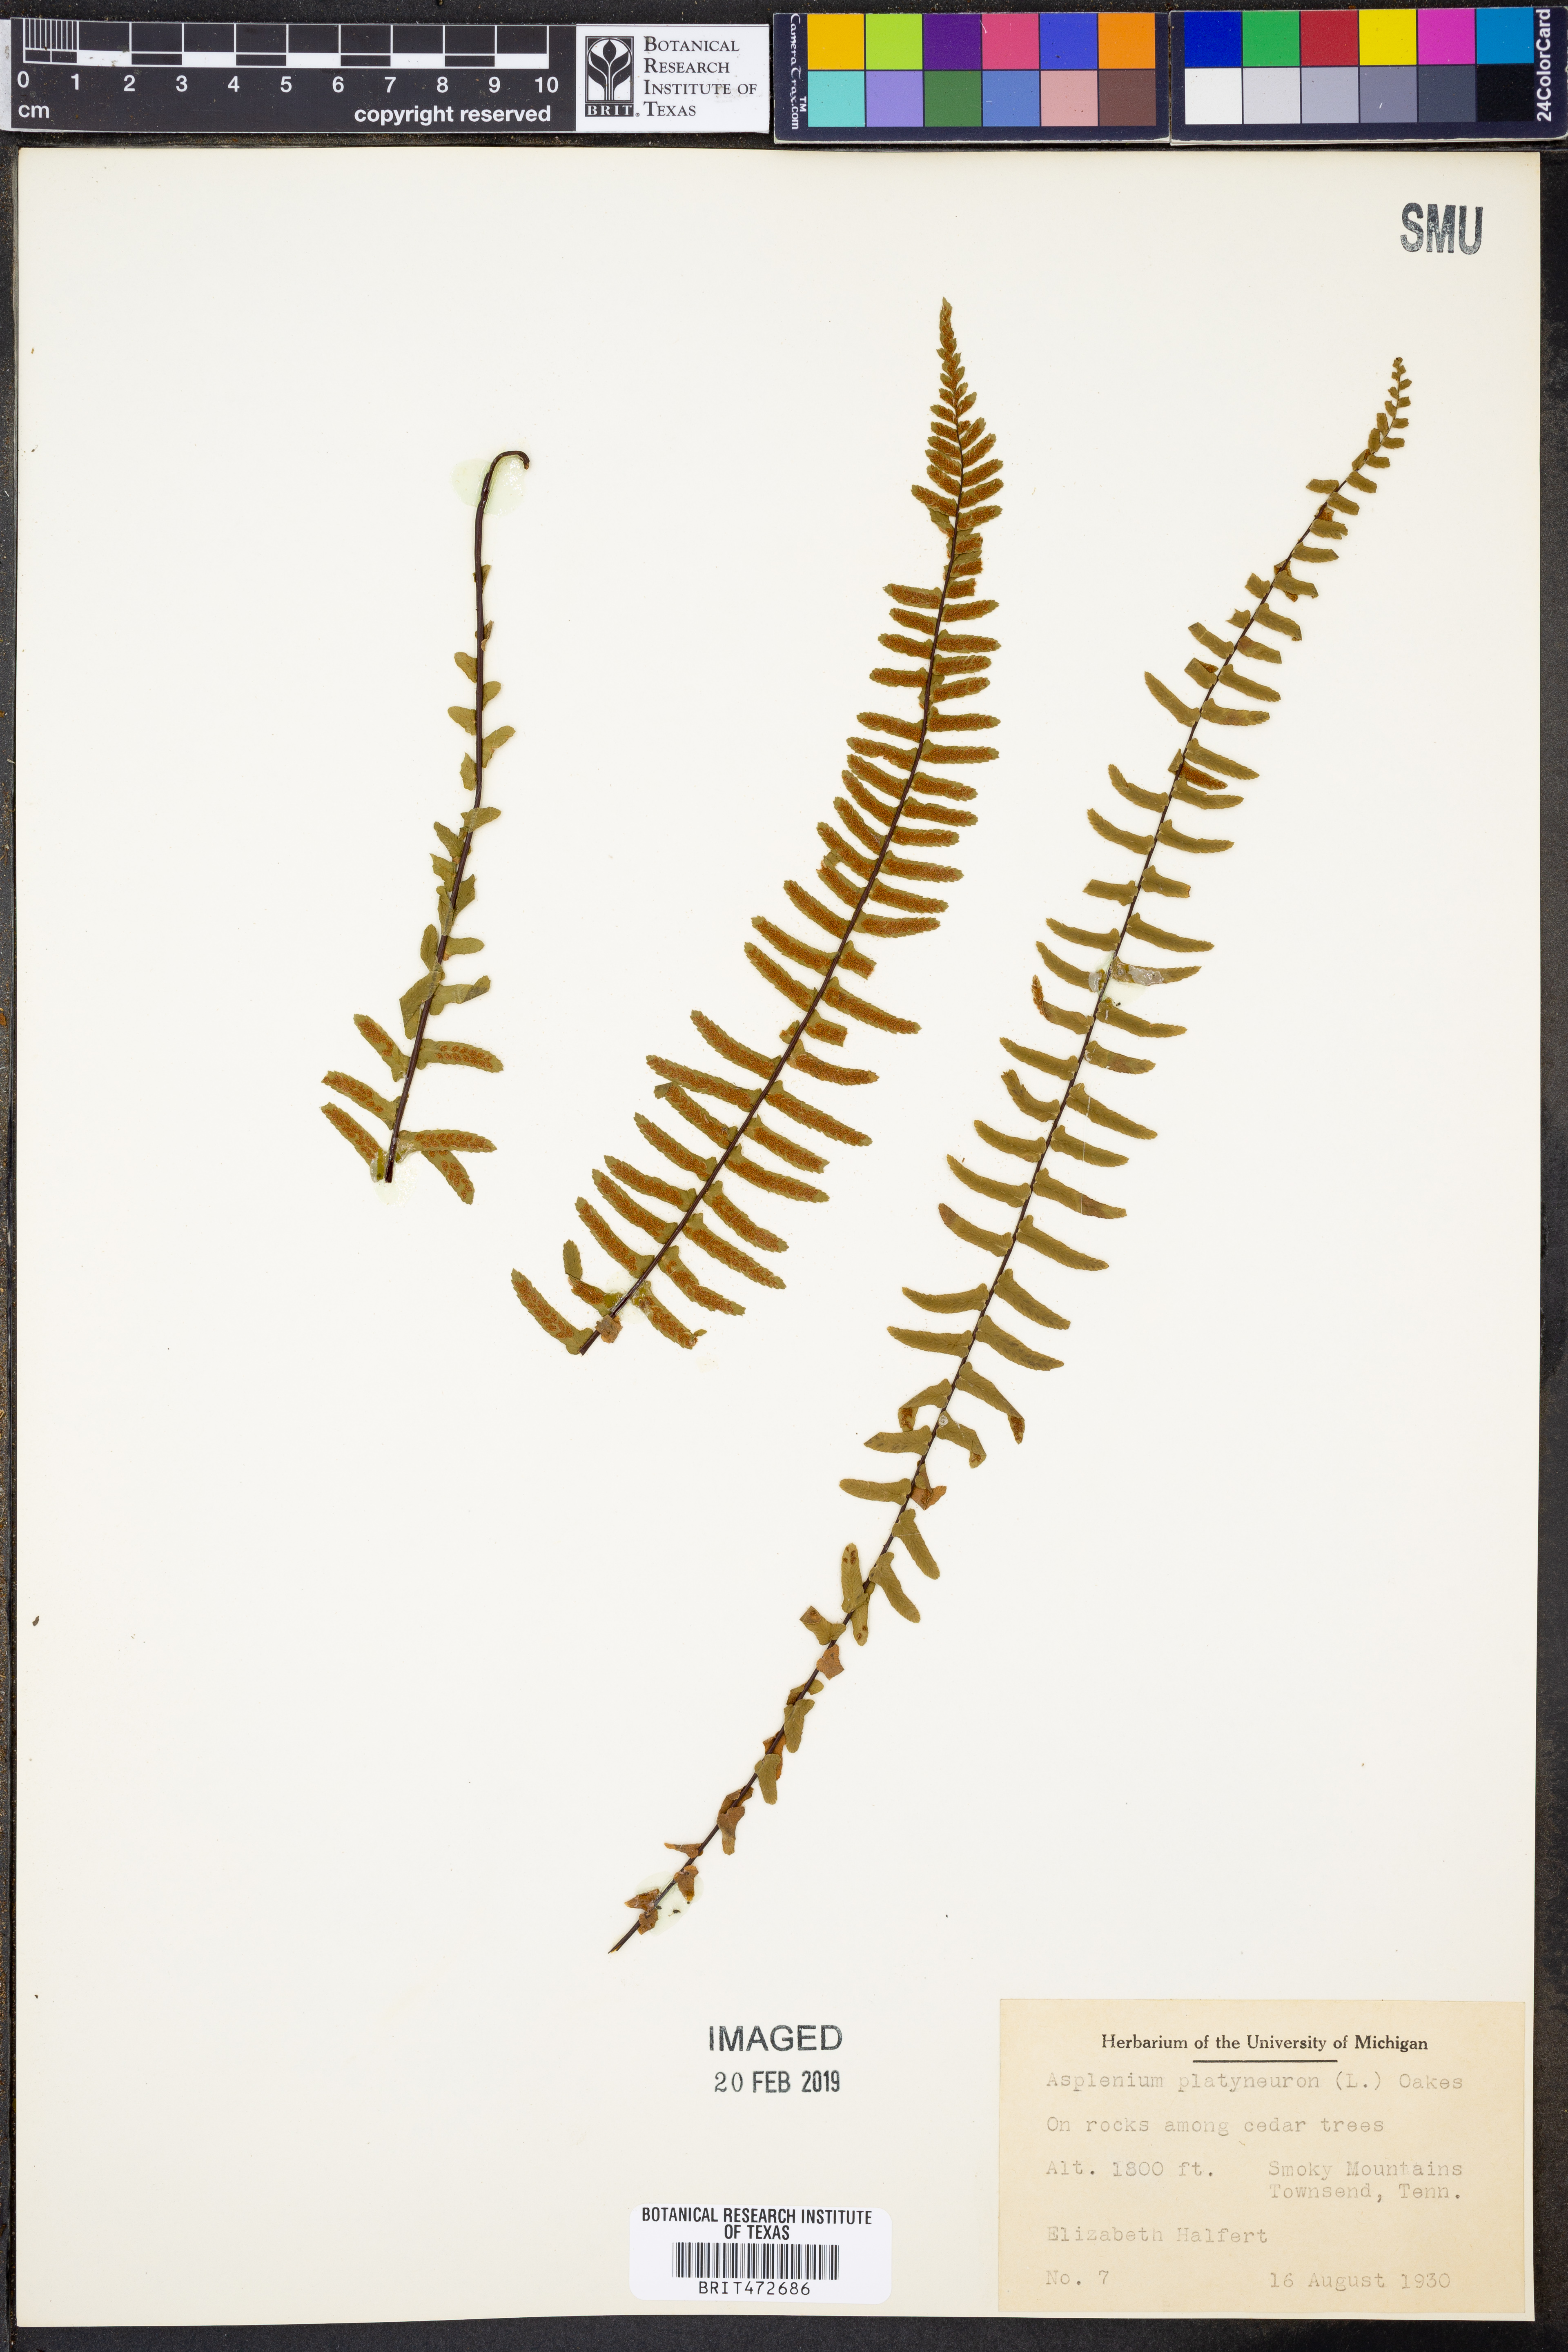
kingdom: Plantae
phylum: Tracheophyta
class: Polypodiopsida
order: Polypodiales
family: Aspleniaceae
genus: Asplenium
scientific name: Asplenium platyneuron
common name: Ebony spleenwort
